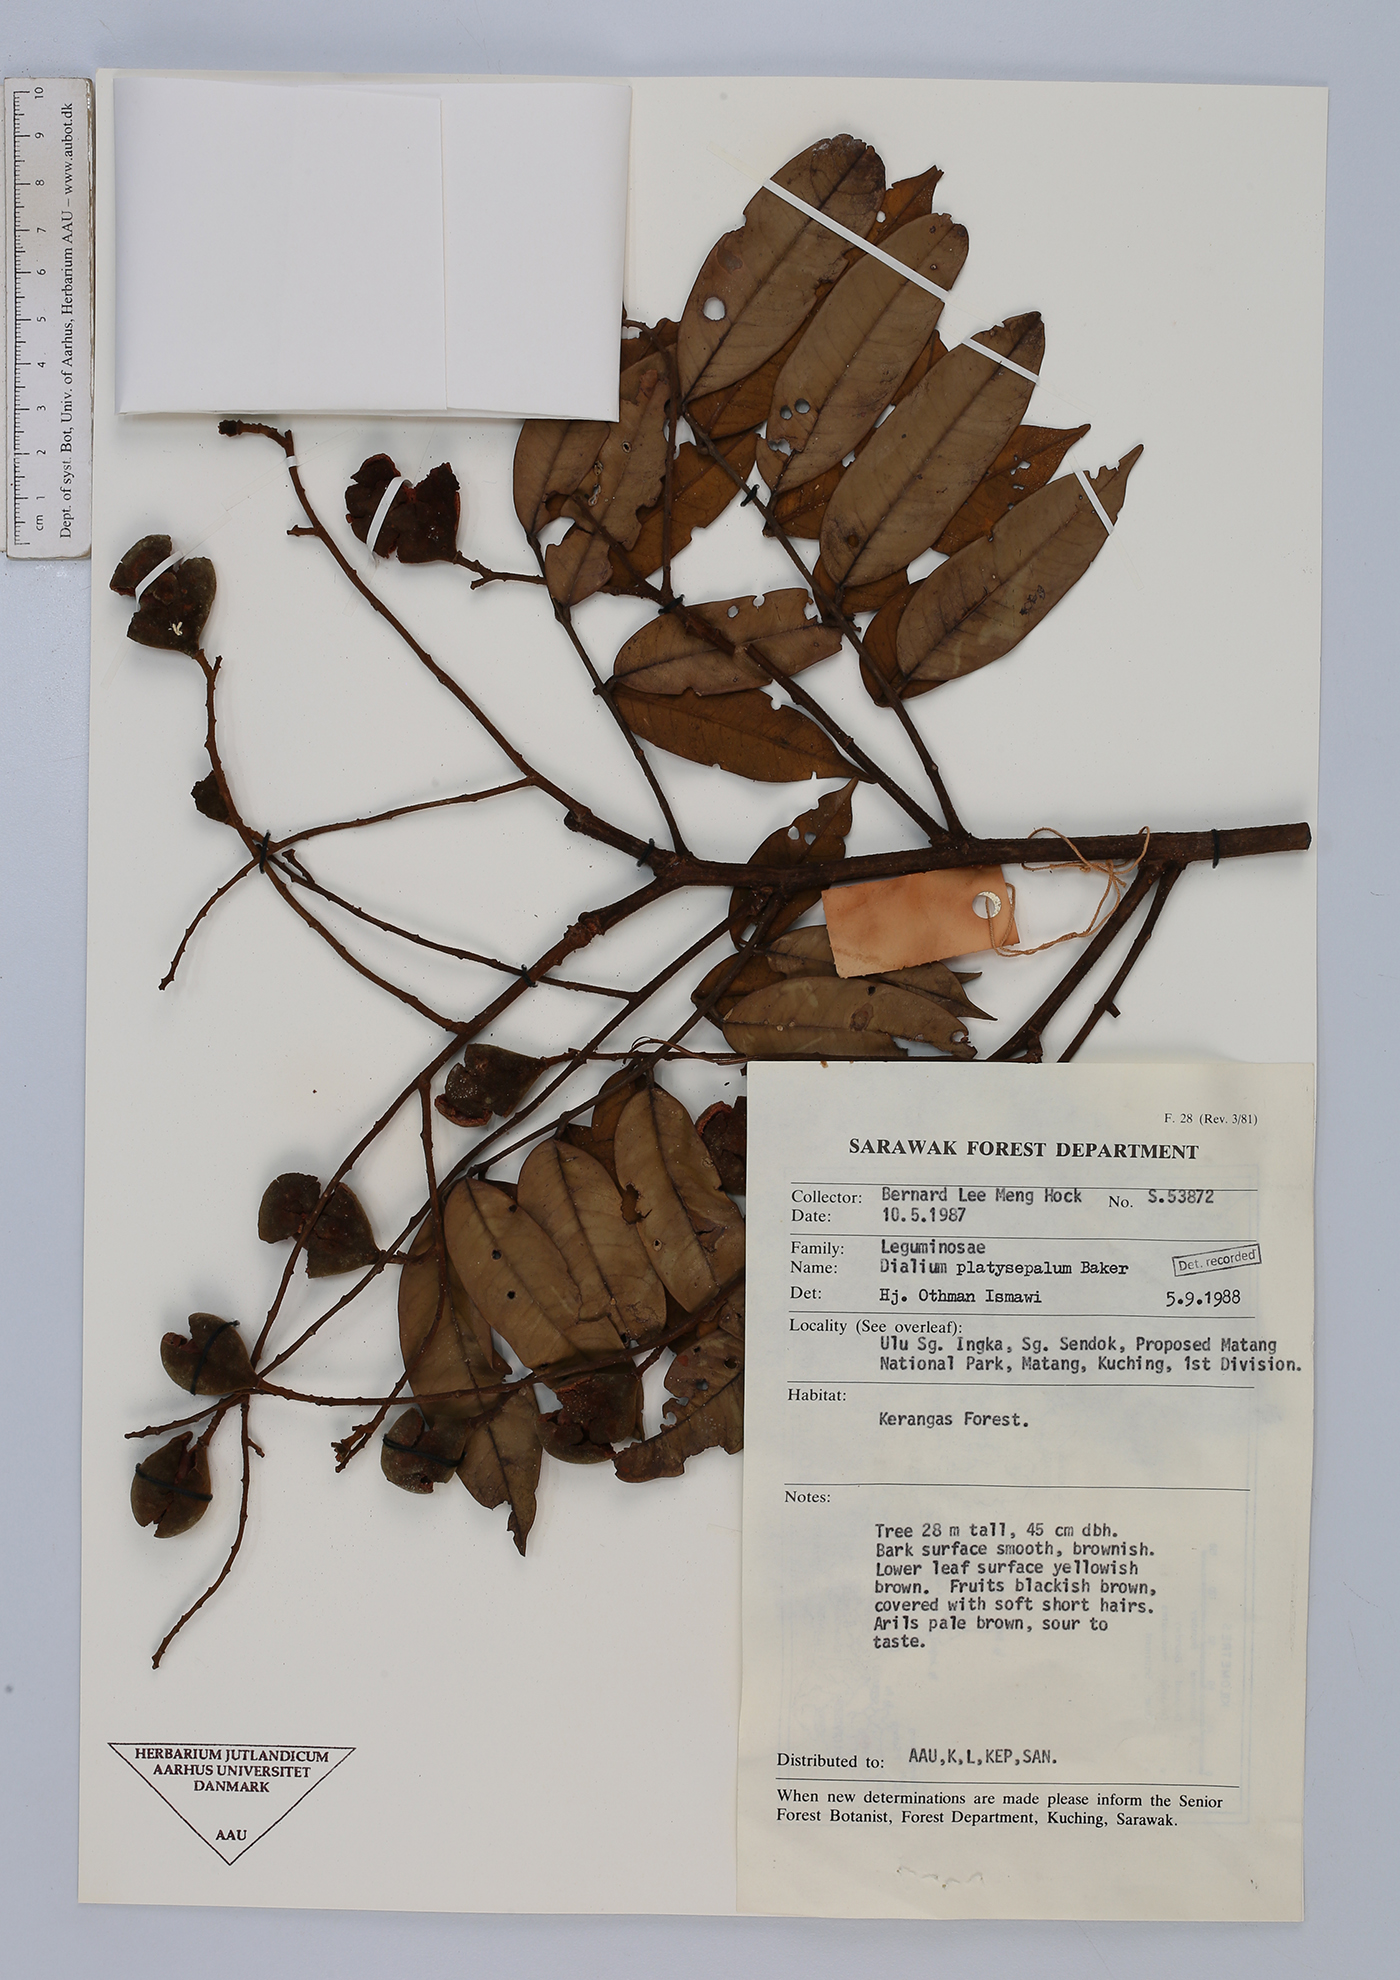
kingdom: Plantae
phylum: Tracheophyta
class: Magnoliopsida
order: Fabales
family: Fabaceae
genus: Dialium
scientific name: Dialium platysepalum
